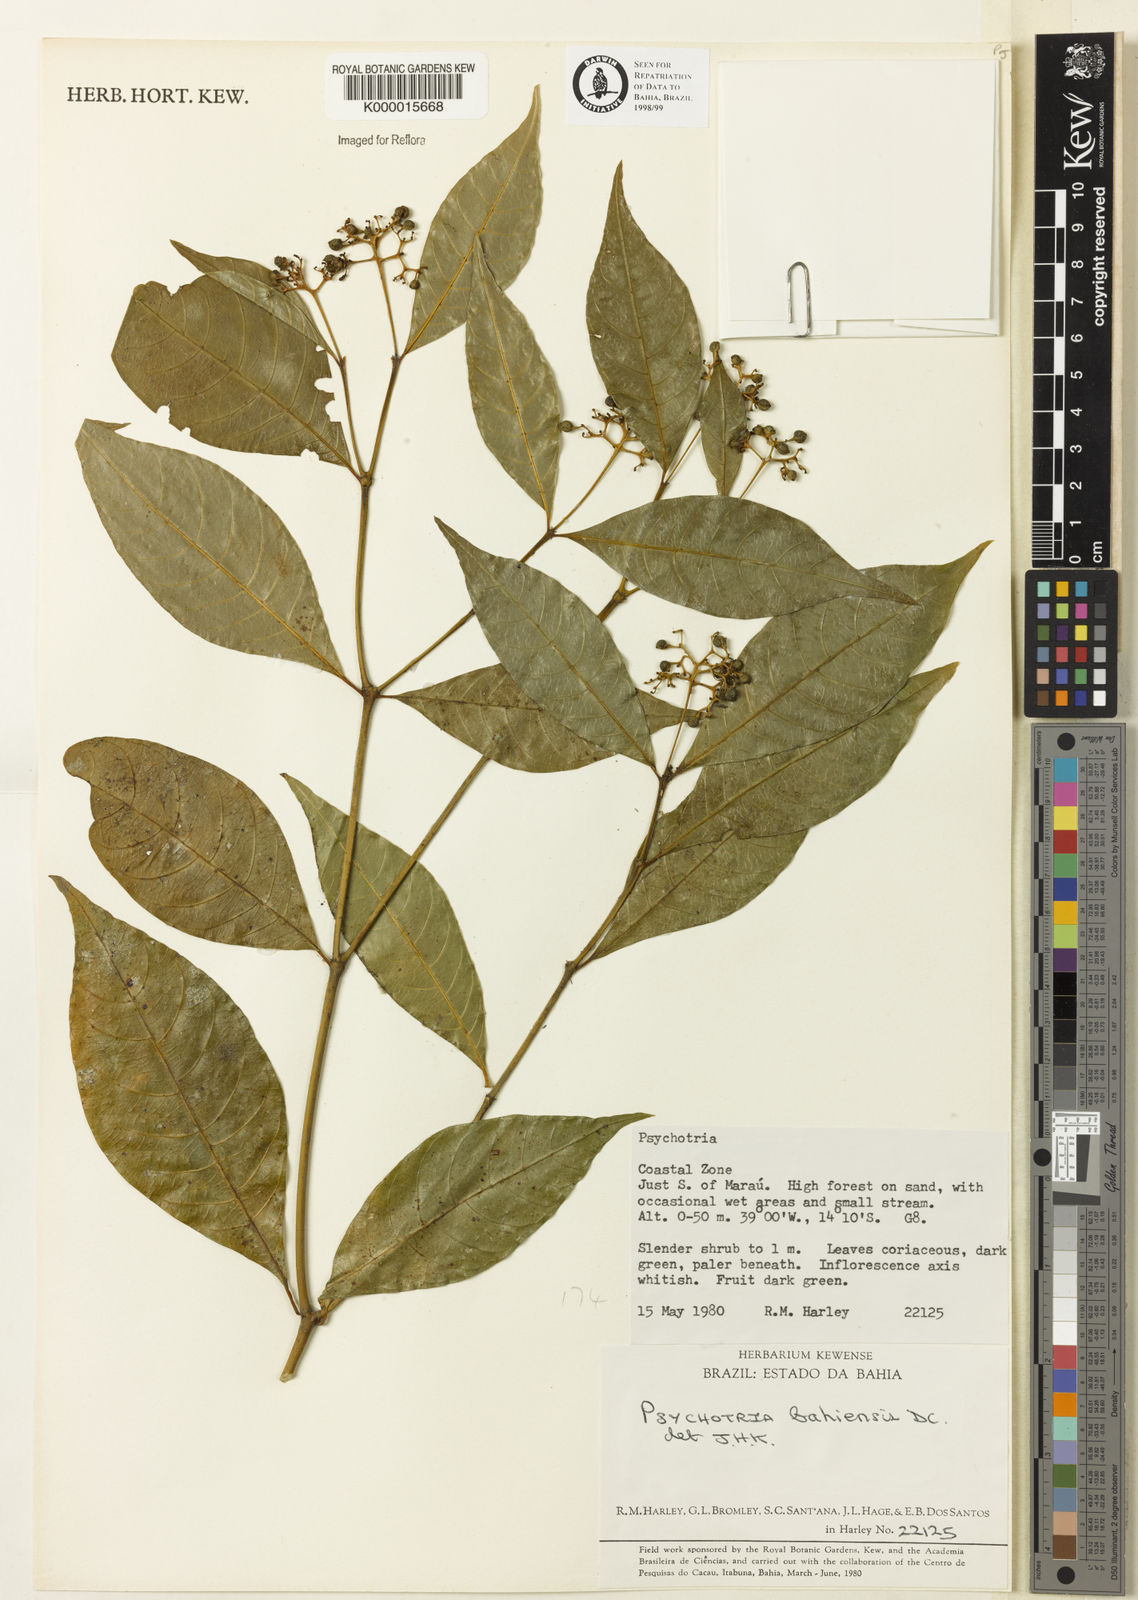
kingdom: Plantae
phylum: Tracheophyta
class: Magnoliopsida
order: Gentianales
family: Rubiaceae
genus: Psychotria
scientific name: Psychotria bahiensis
